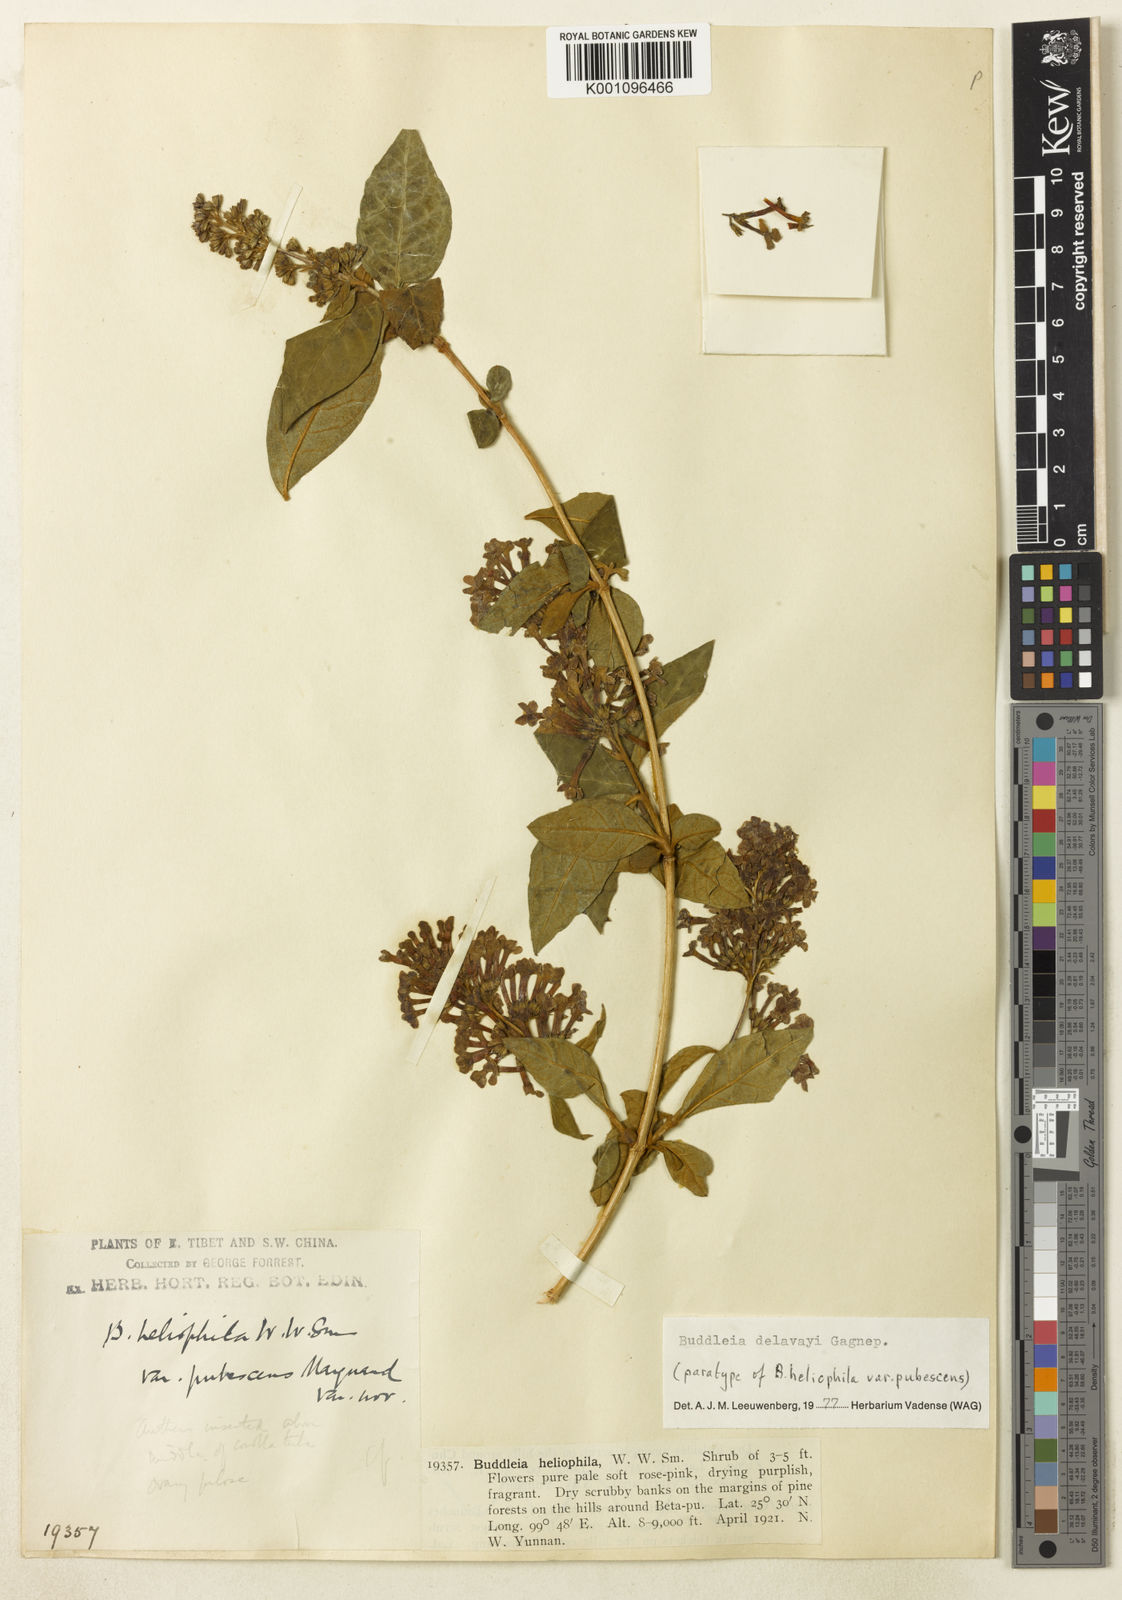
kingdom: Plantae
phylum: Tracheophyta
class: Magnoliopsida
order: Lamiales
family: Scrophulariaceae
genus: Buddleja
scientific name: Buddleja delavayi
